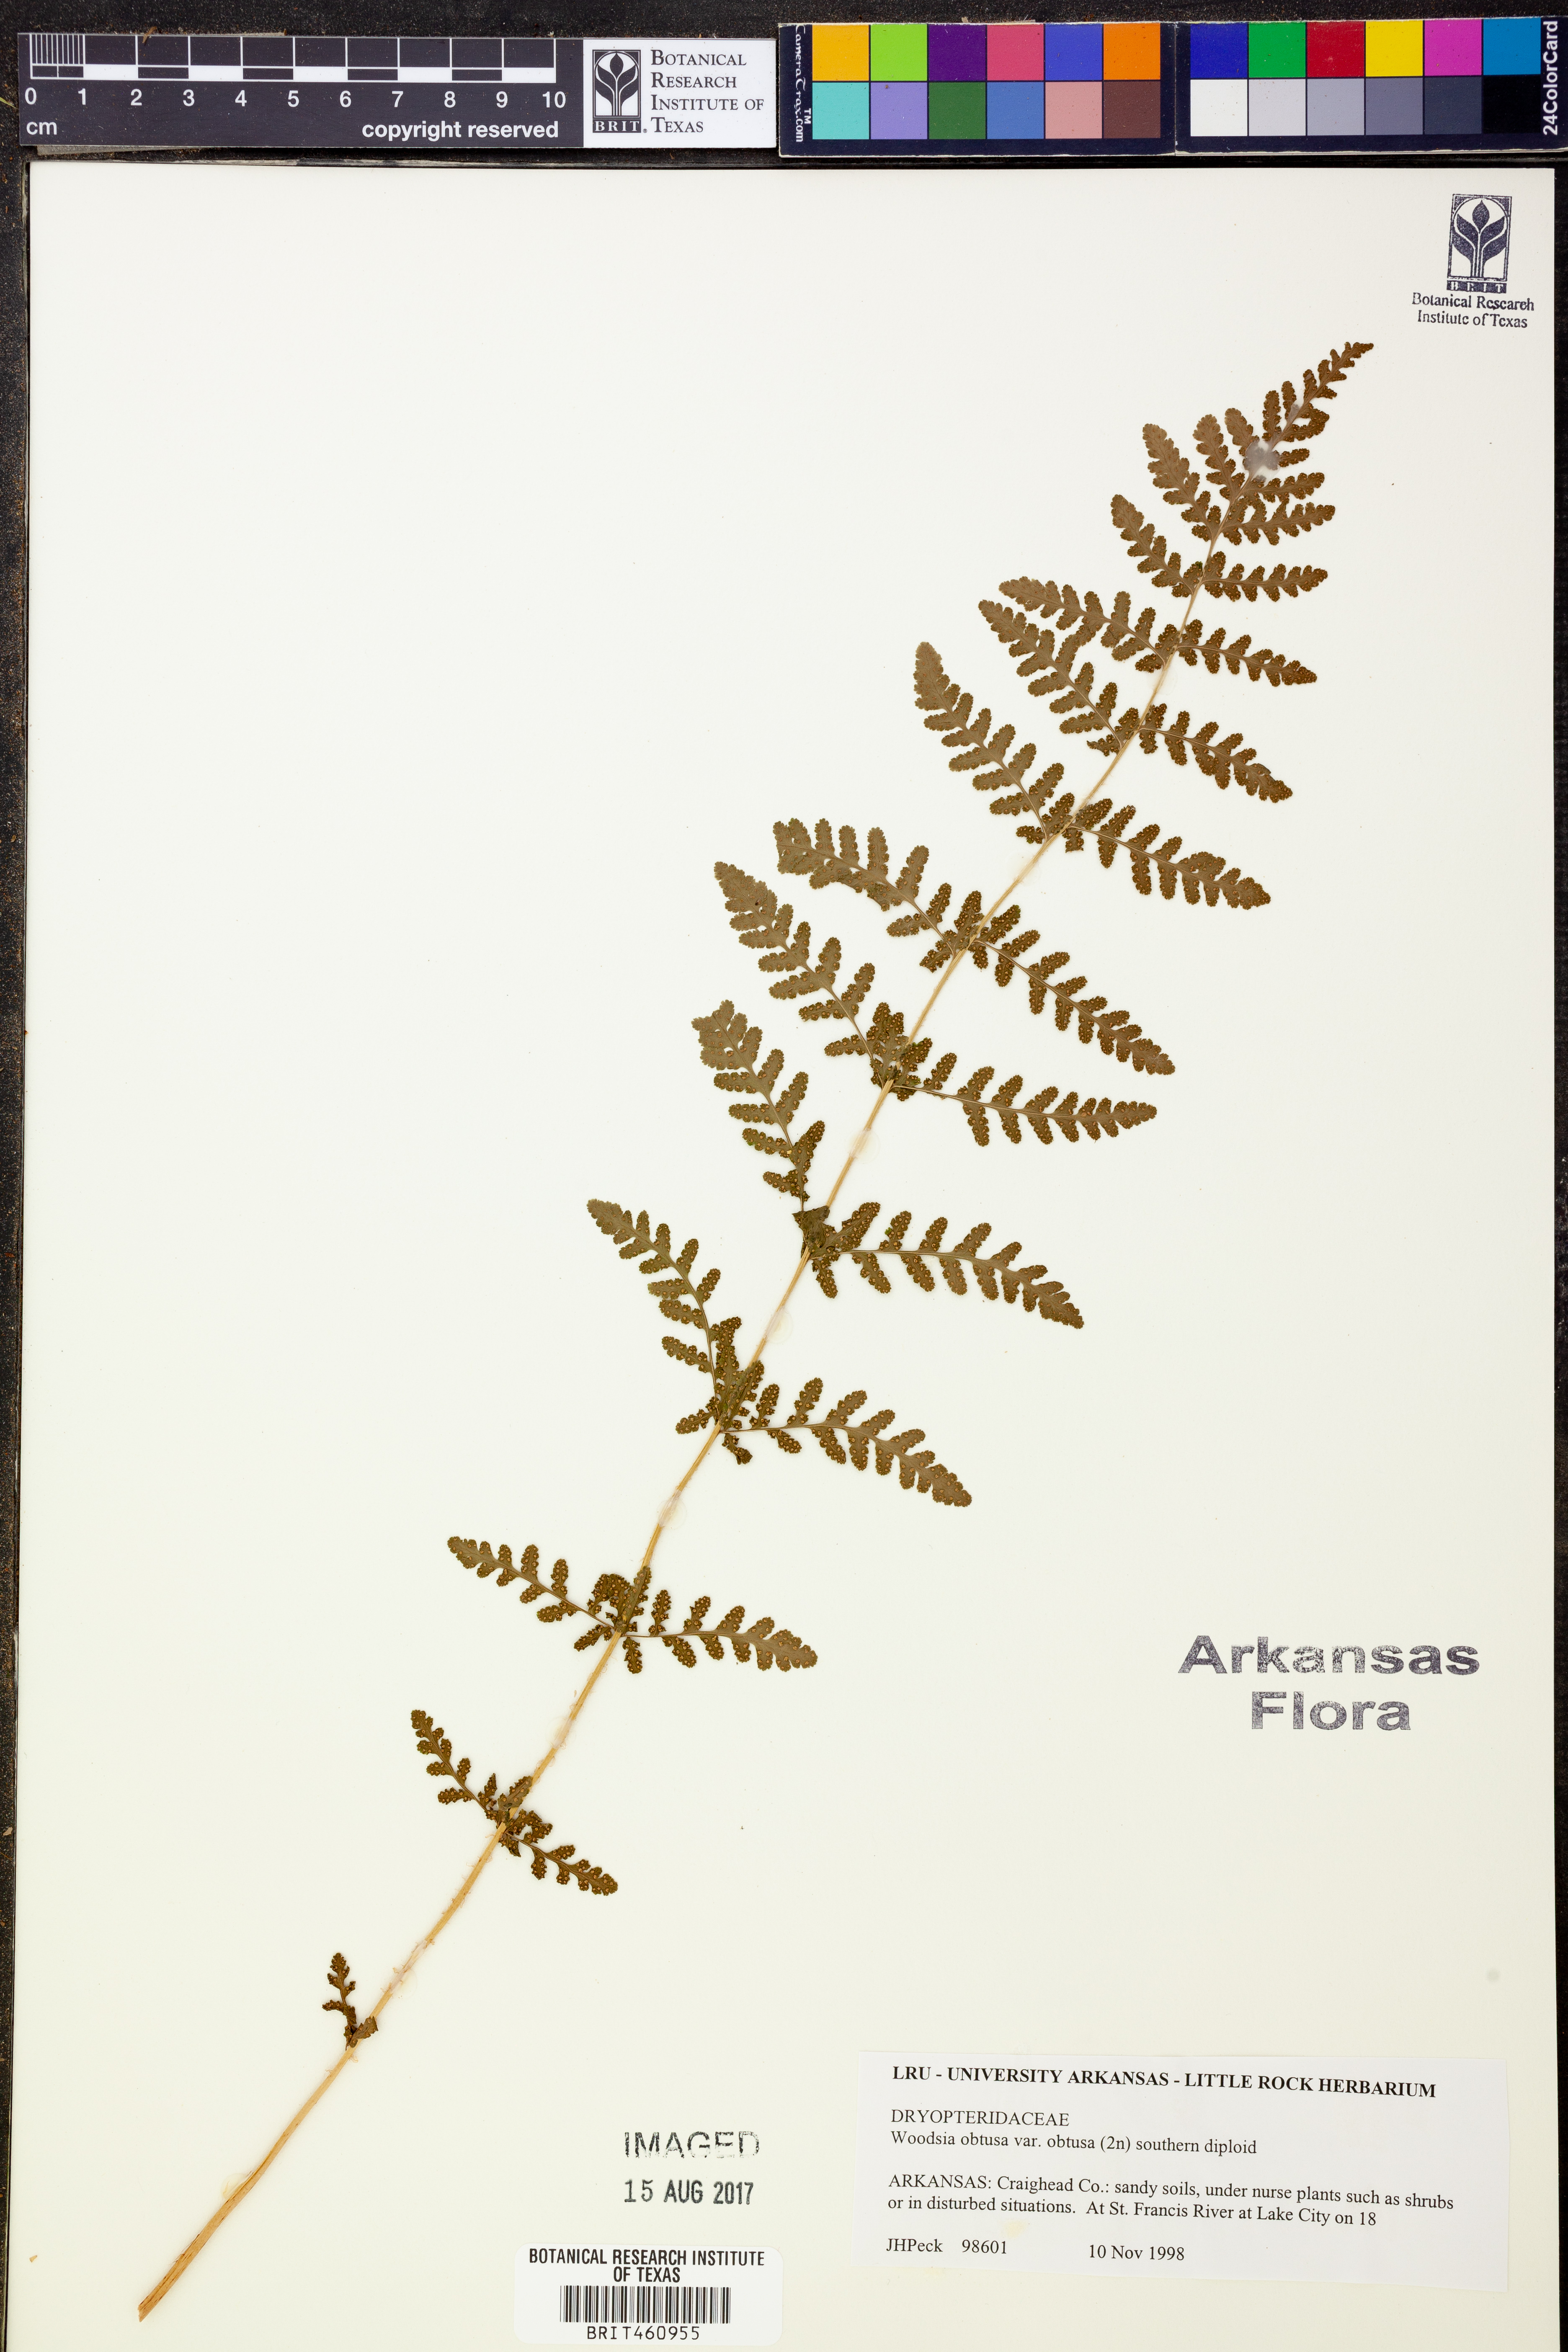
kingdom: Plantae
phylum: Tracheophyta
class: Polypodiopsida
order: Polypodiales
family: Woodsiaceae
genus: Physematium
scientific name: Physematium obtusum
